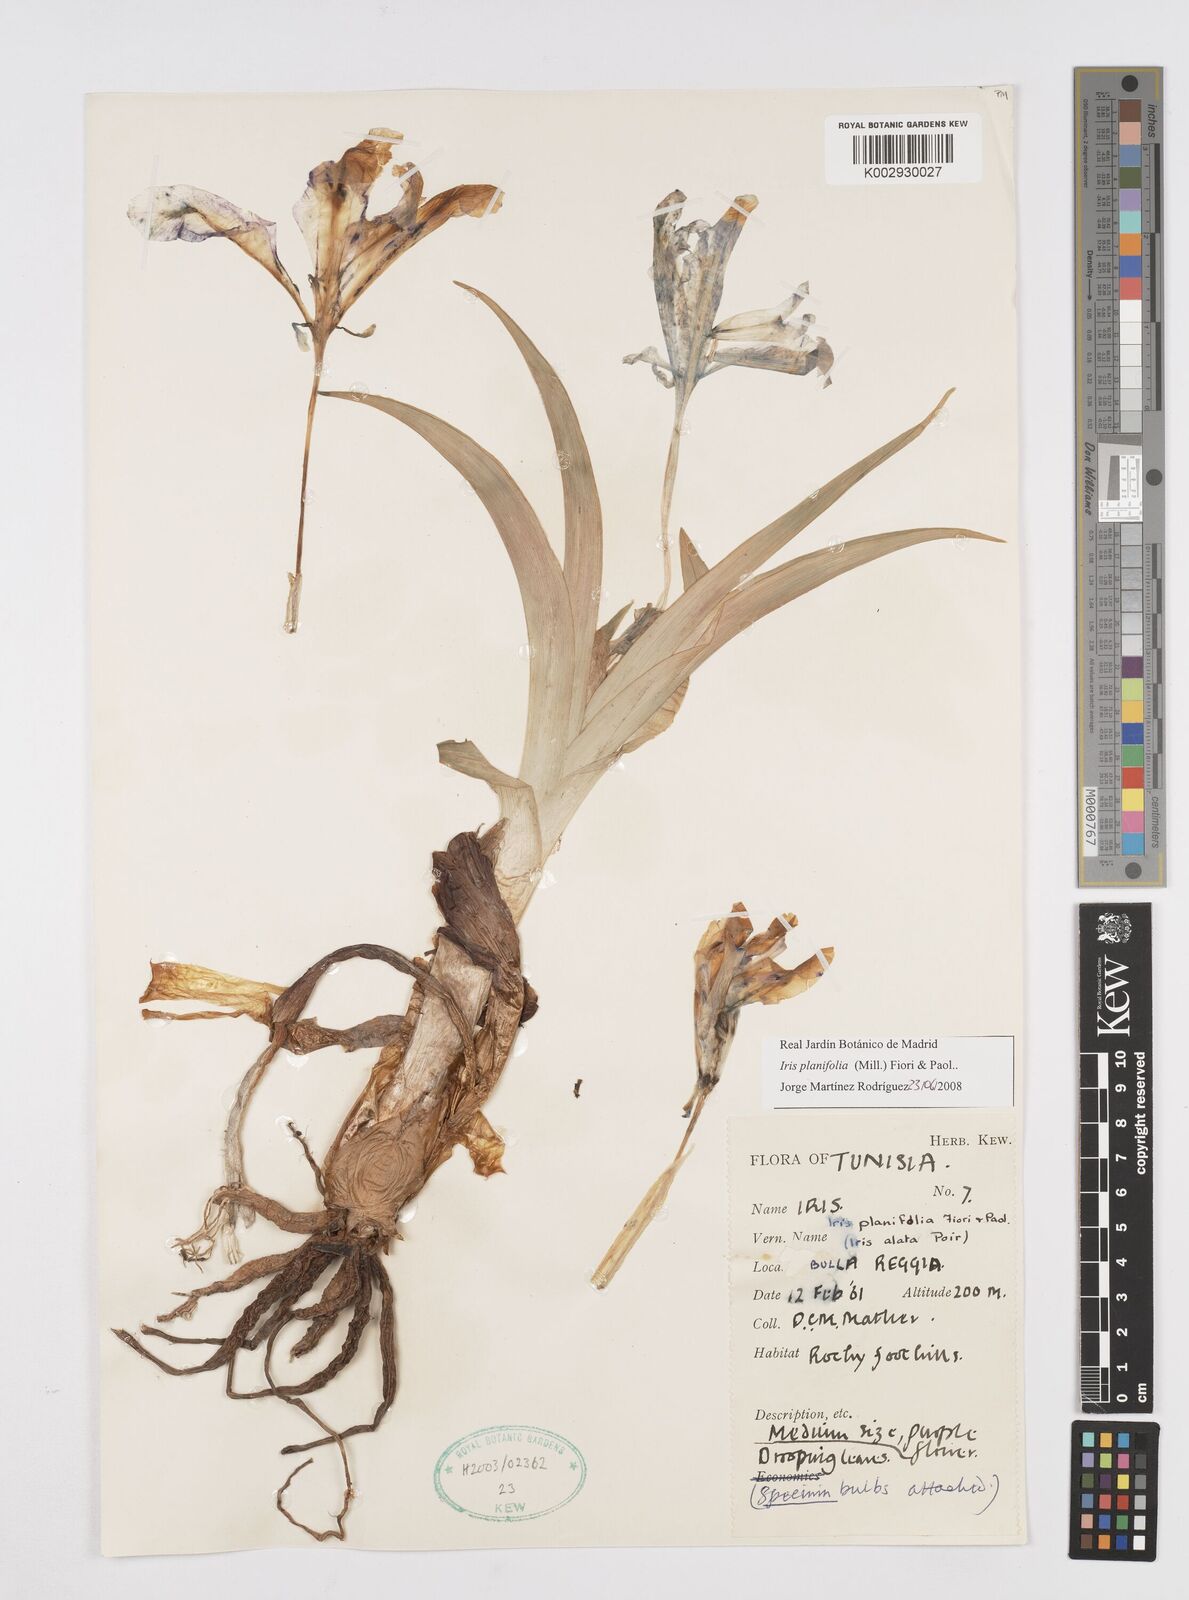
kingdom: Plantae
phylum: Tracheophyta
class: Liliopsida
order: Asparagales
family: Iridaceae
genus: Iris
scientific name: Iris planifolia
